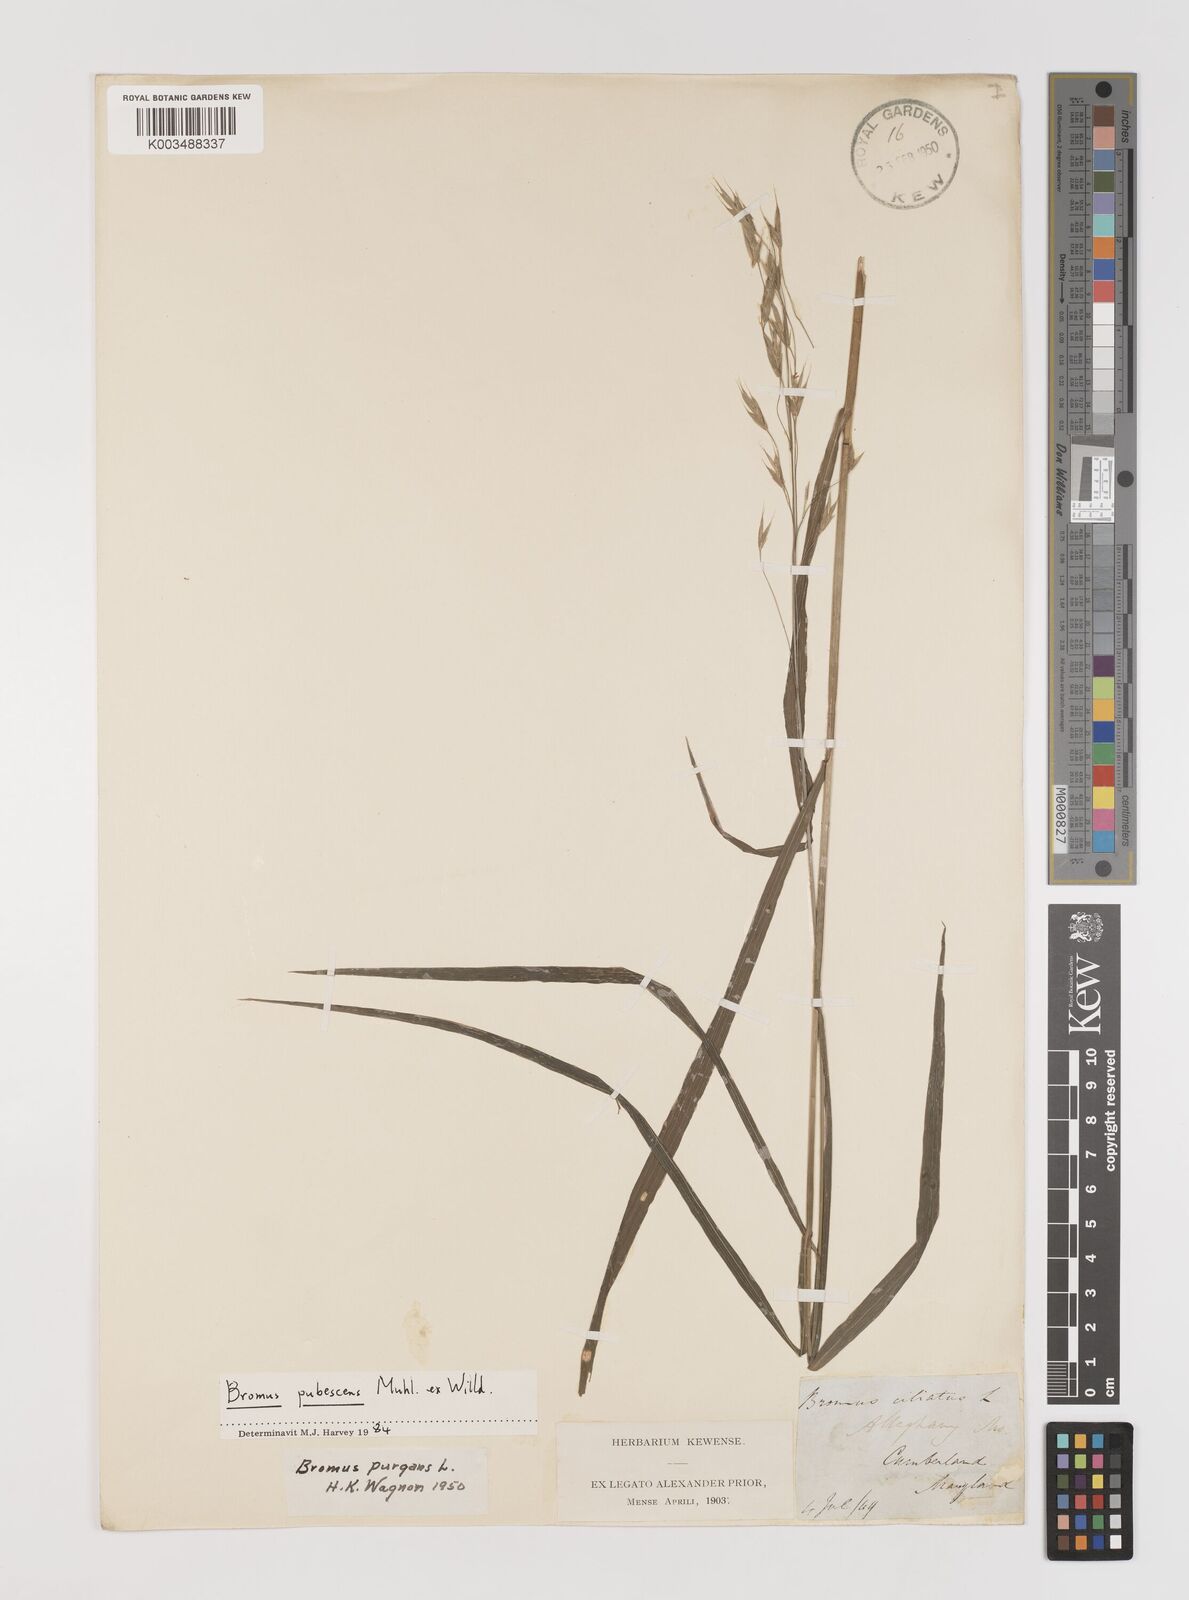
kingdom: Plantae
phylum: Tracheophyta
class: Liliopsida
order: Poales
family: Poaceae
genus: Bromus
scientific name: Bromus pubescens
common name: Hairy wood brome grass
